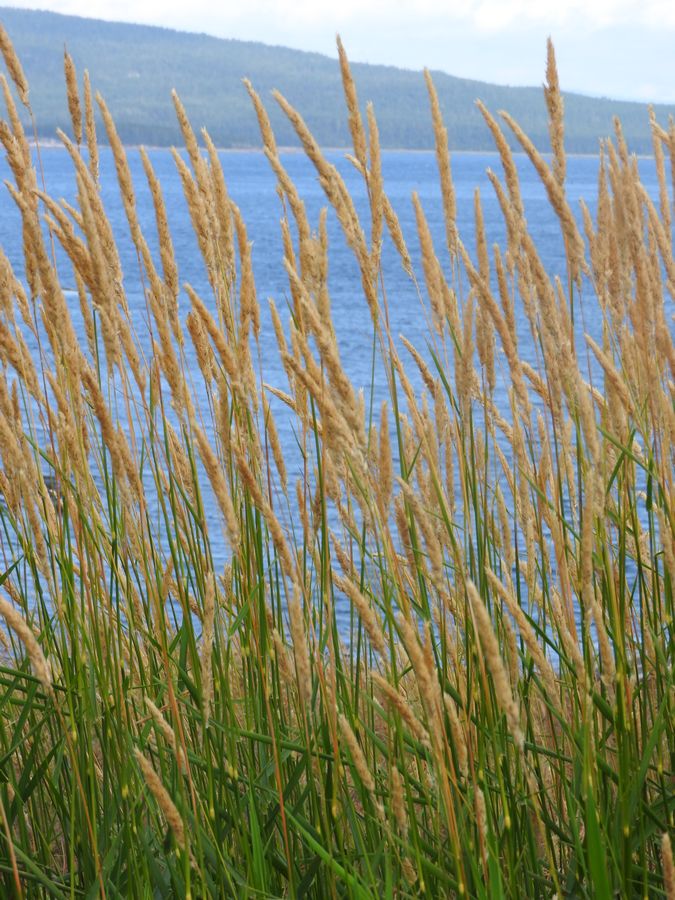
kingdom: Plantae
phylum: Tracheophyta
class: Liliopsida
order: Poales
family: Poaceae
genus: Phalaris
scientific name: Phalaris arundinacea
